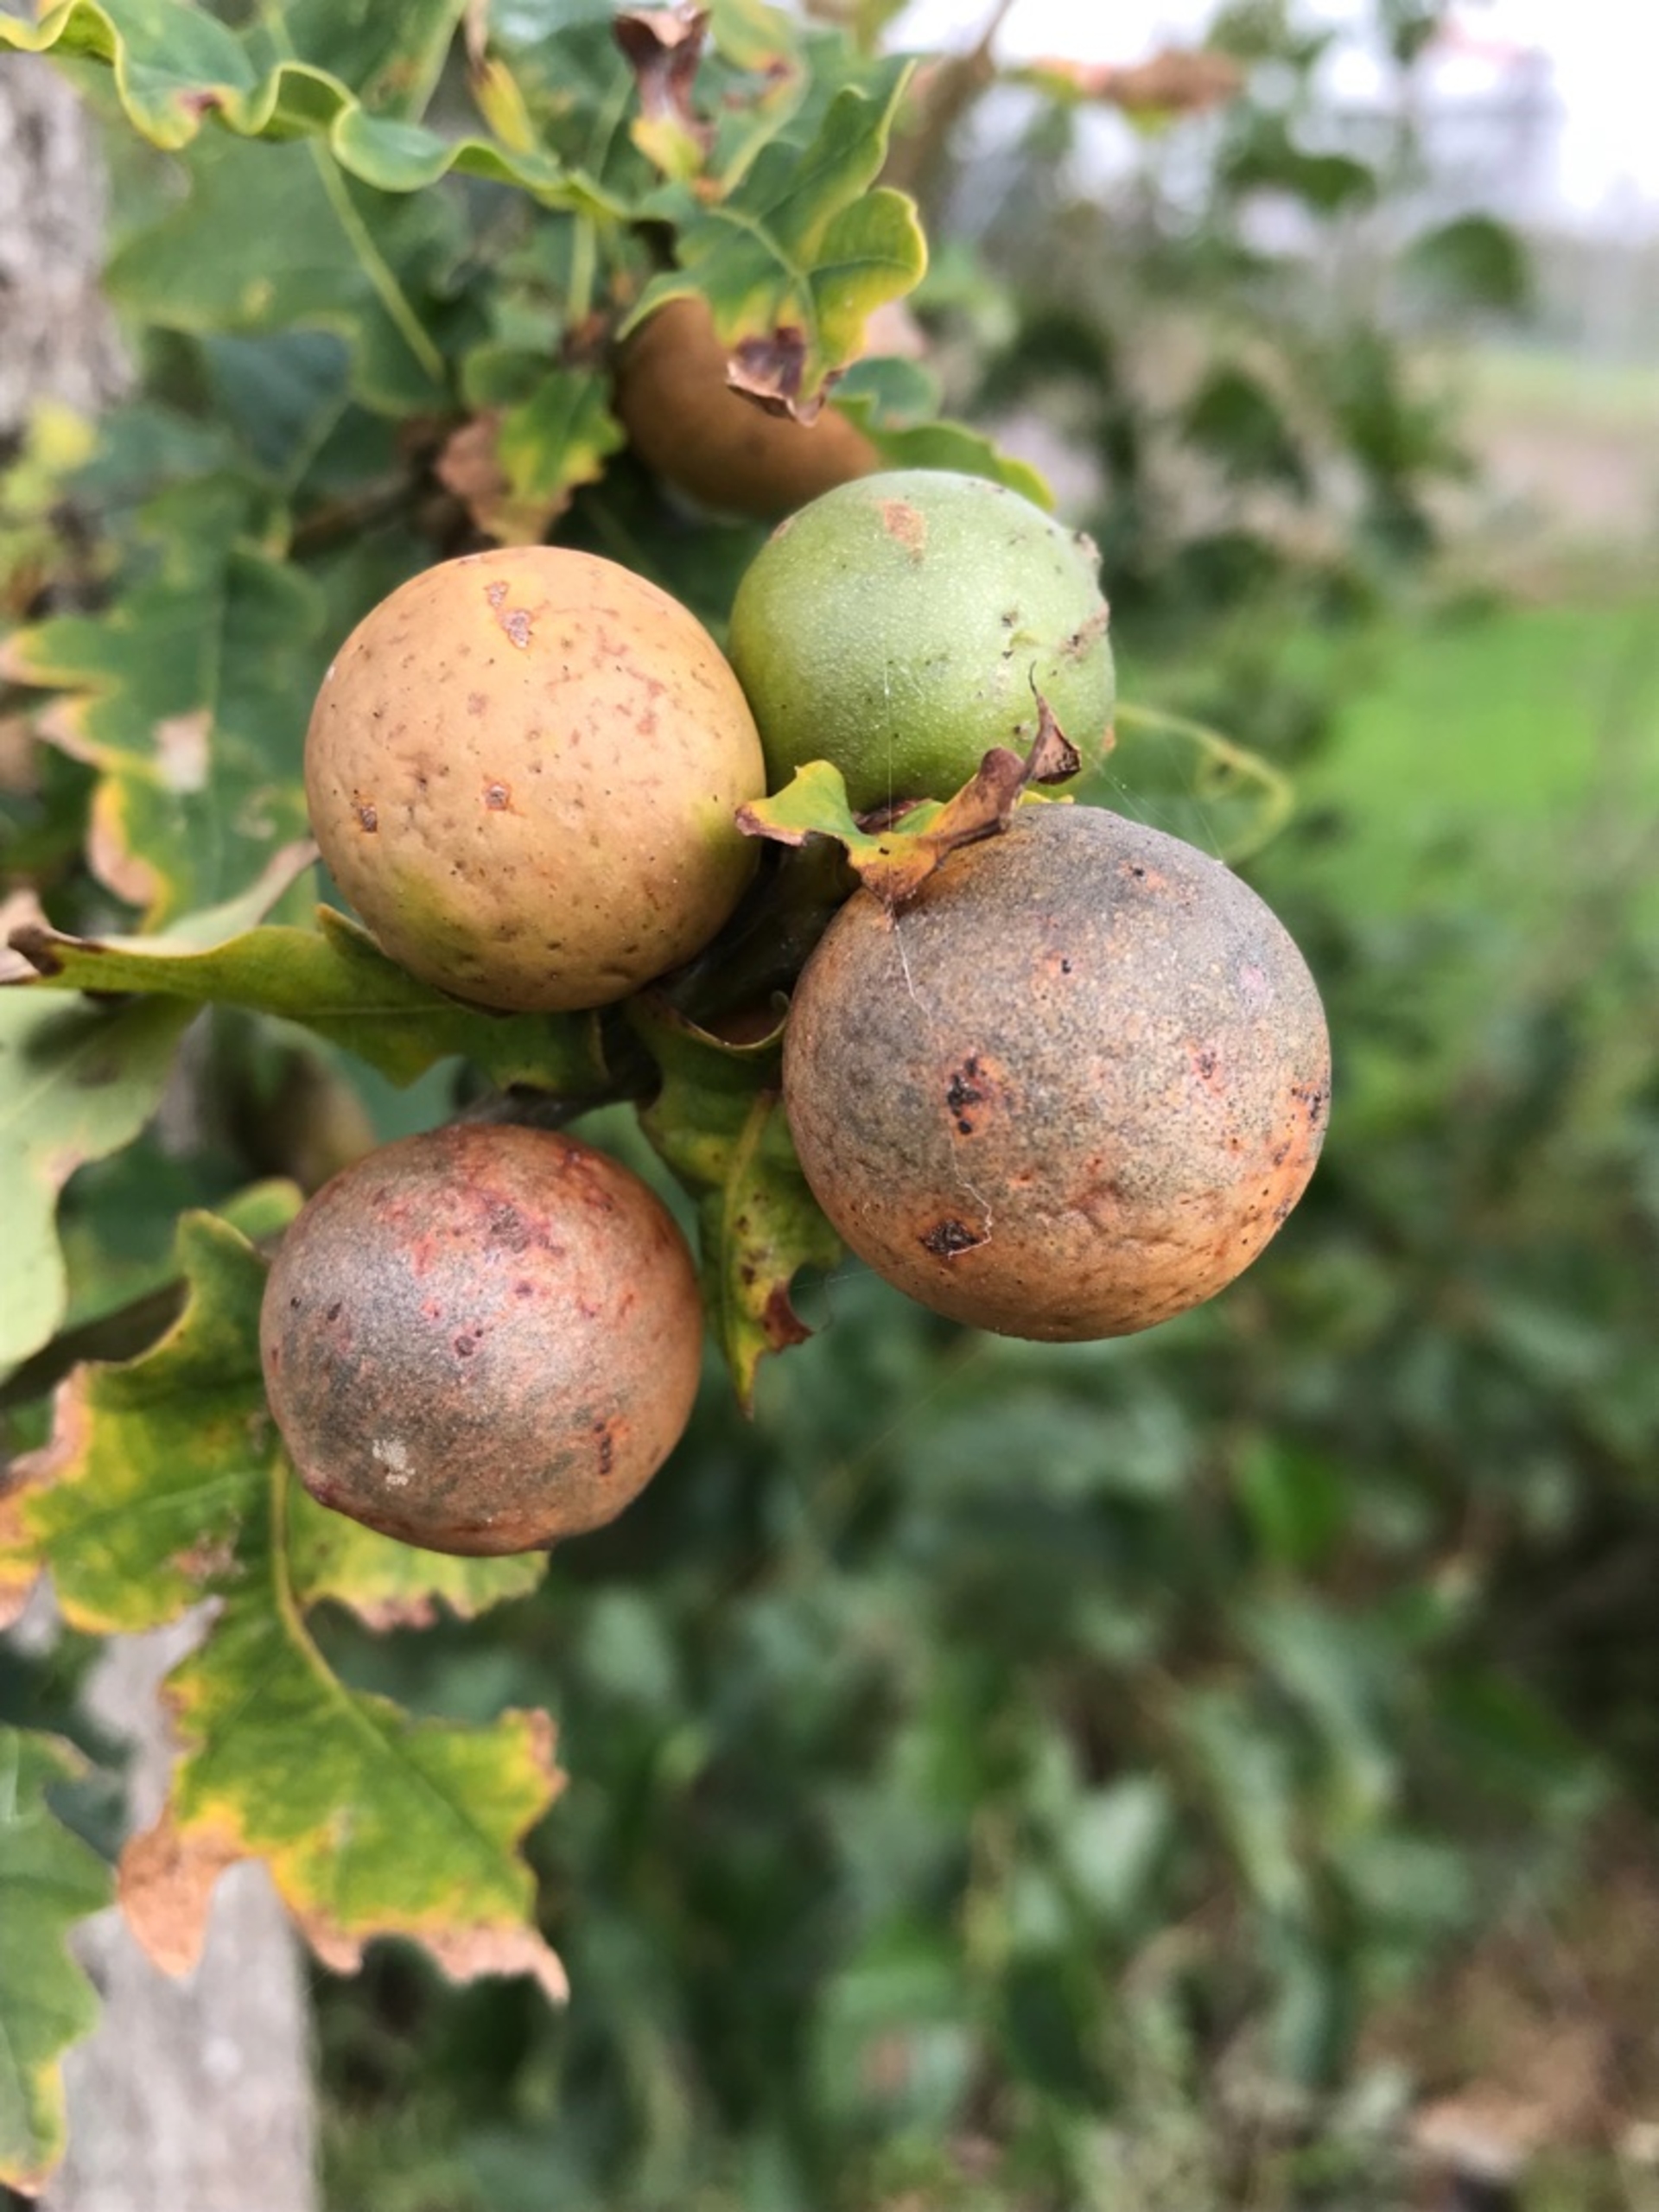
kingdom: Animalia
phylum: Arthropoda
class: Insecta
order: Hymenoptera
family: Cynipidae
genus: Andricus
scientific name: Andricus kollari
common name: Marmorkugle-galhveps
